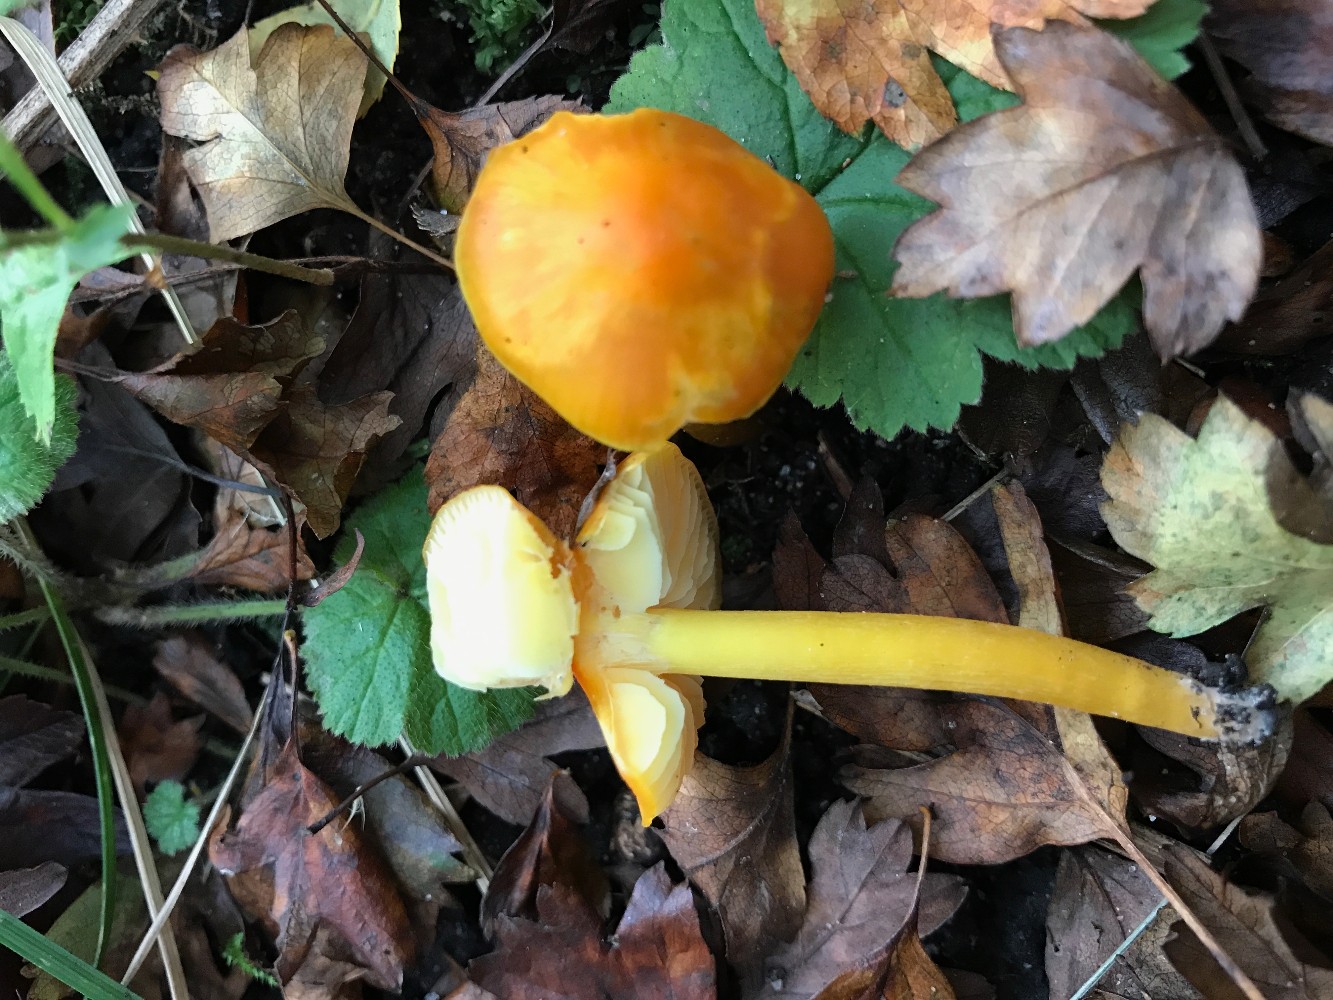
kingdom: Fungi
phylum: Basidiomycota
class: Agaricomycetes
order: Agaricales
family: Hygrophoraceae
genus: Hygrocybe
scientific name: Hygrocybe
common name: vokshat
